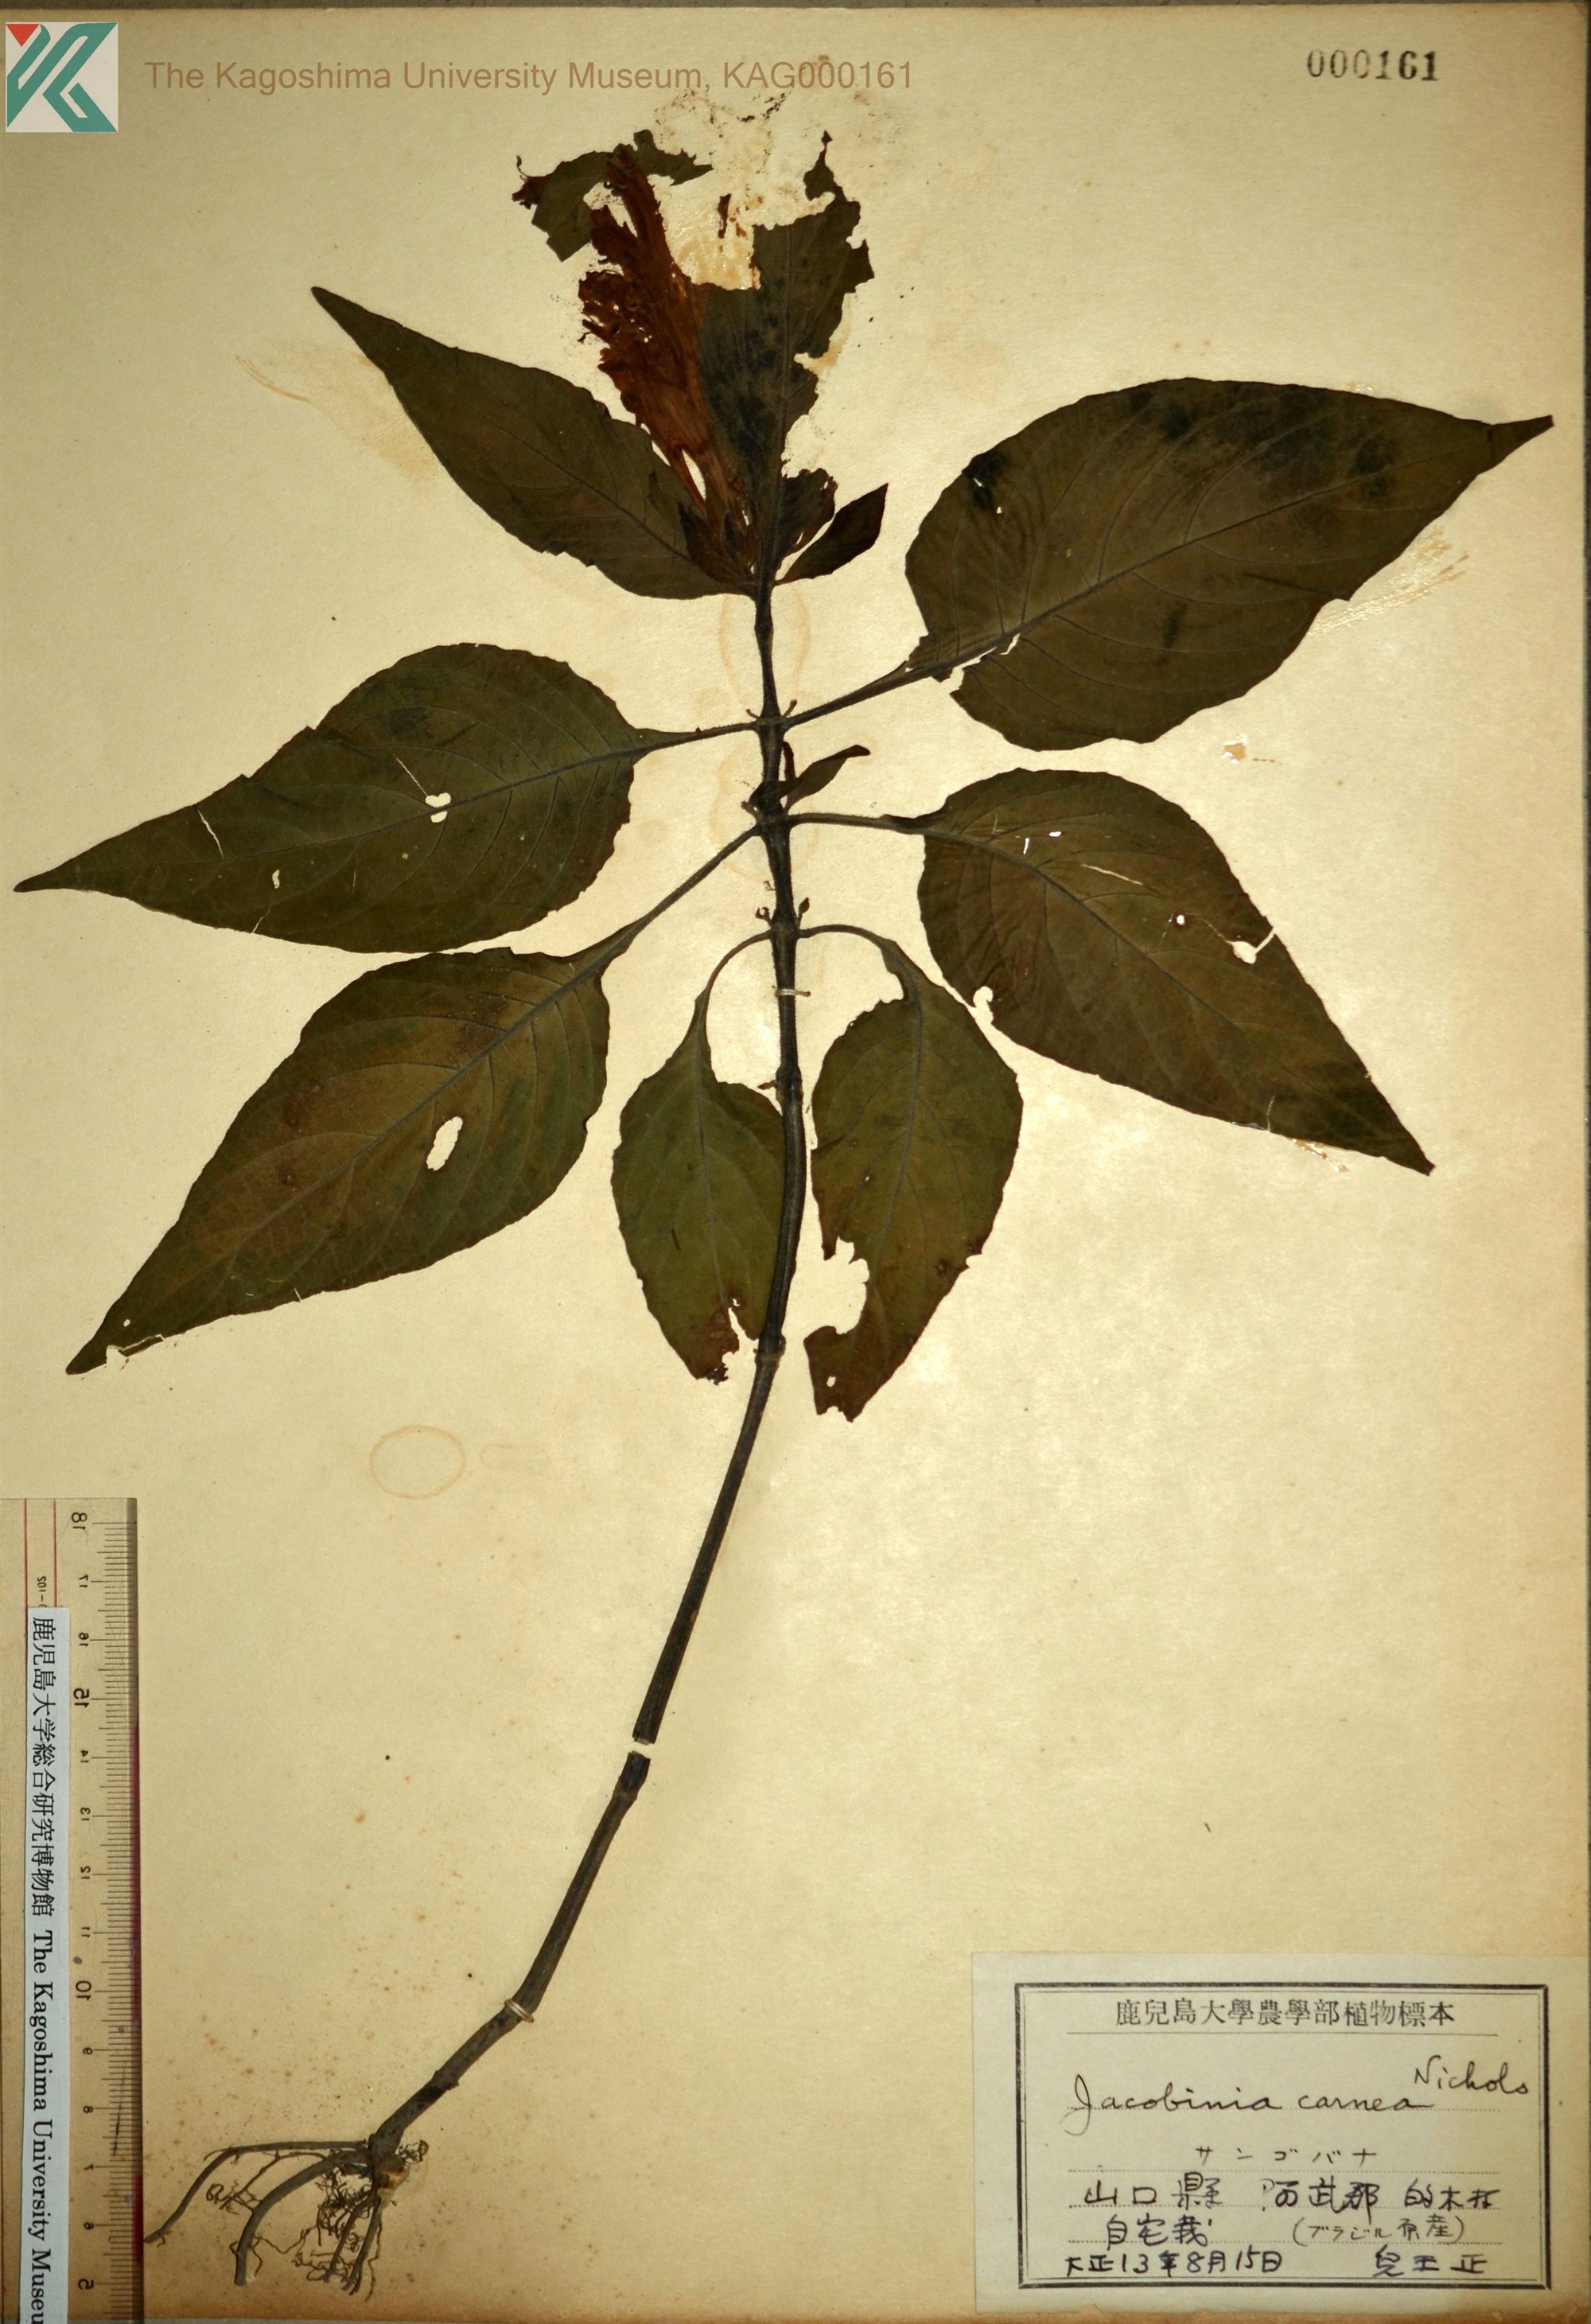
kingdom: Plantae
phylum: Tracheophyta
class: Magnoliopsida
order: Lamiales
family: Acanthaceae
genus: Justicia
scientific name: Justicia carnea
